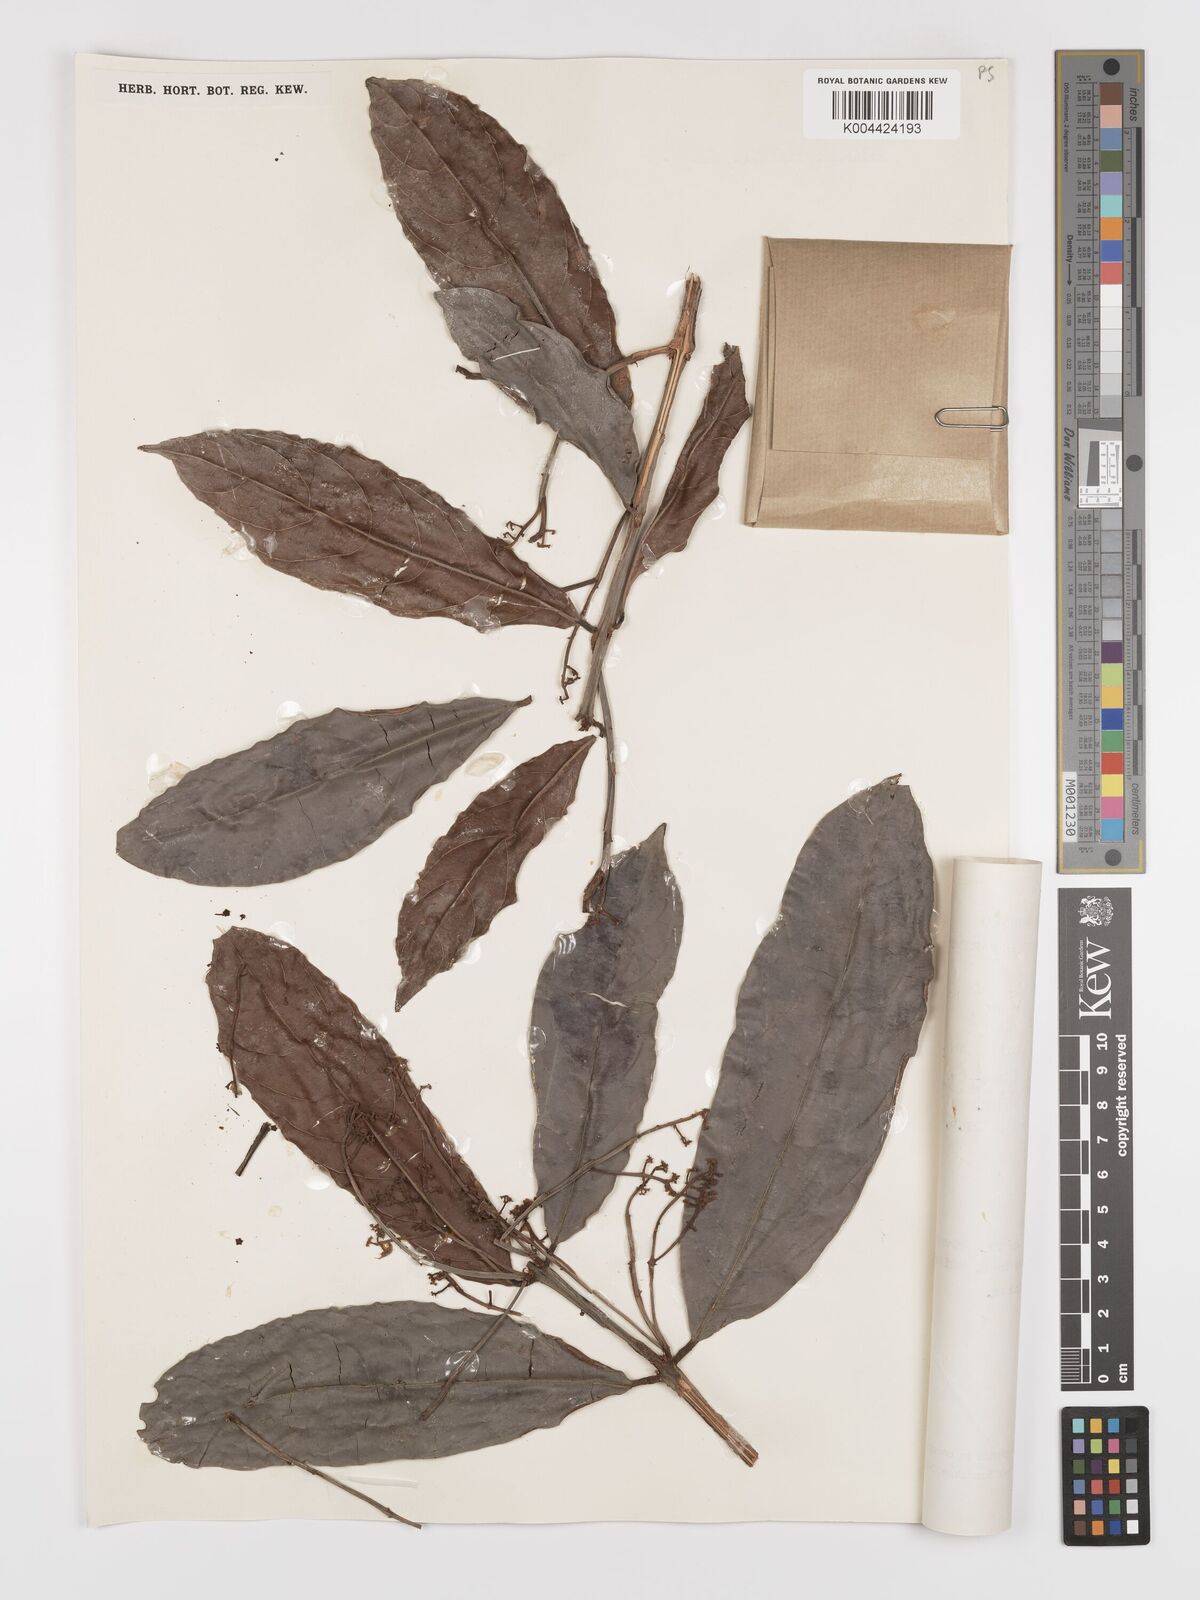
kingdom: Plantae
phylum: Tracheophyta
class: Magnoliopsida
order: Celastrales
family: Celastraceae
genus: Lophopetalum
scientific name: Lophopetalum beccarianum
